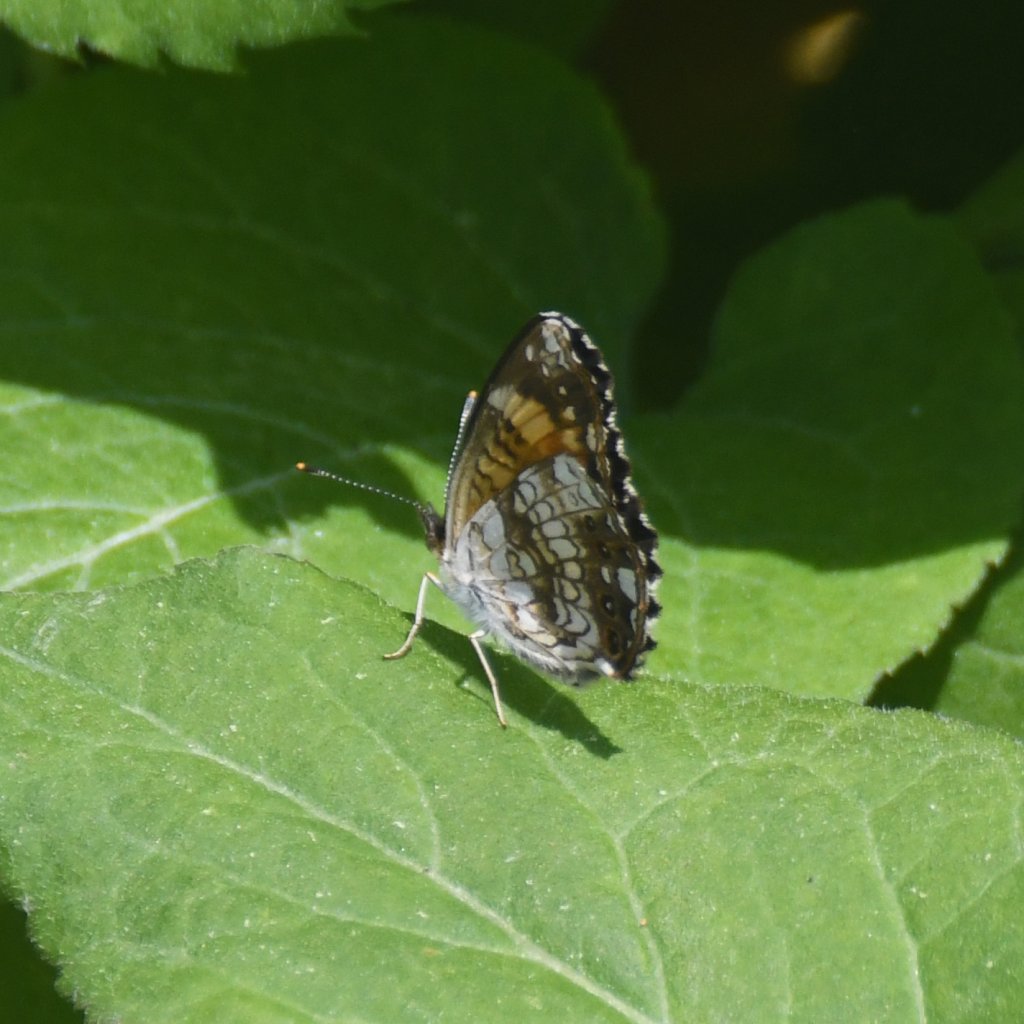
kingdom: Animalia
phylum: Arthropoda
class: Insecta
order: Lepidoptera
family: Nymphalidae
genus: Chlosyne
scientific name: Chlosyne nycteis
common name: Silvery Checkerspot
